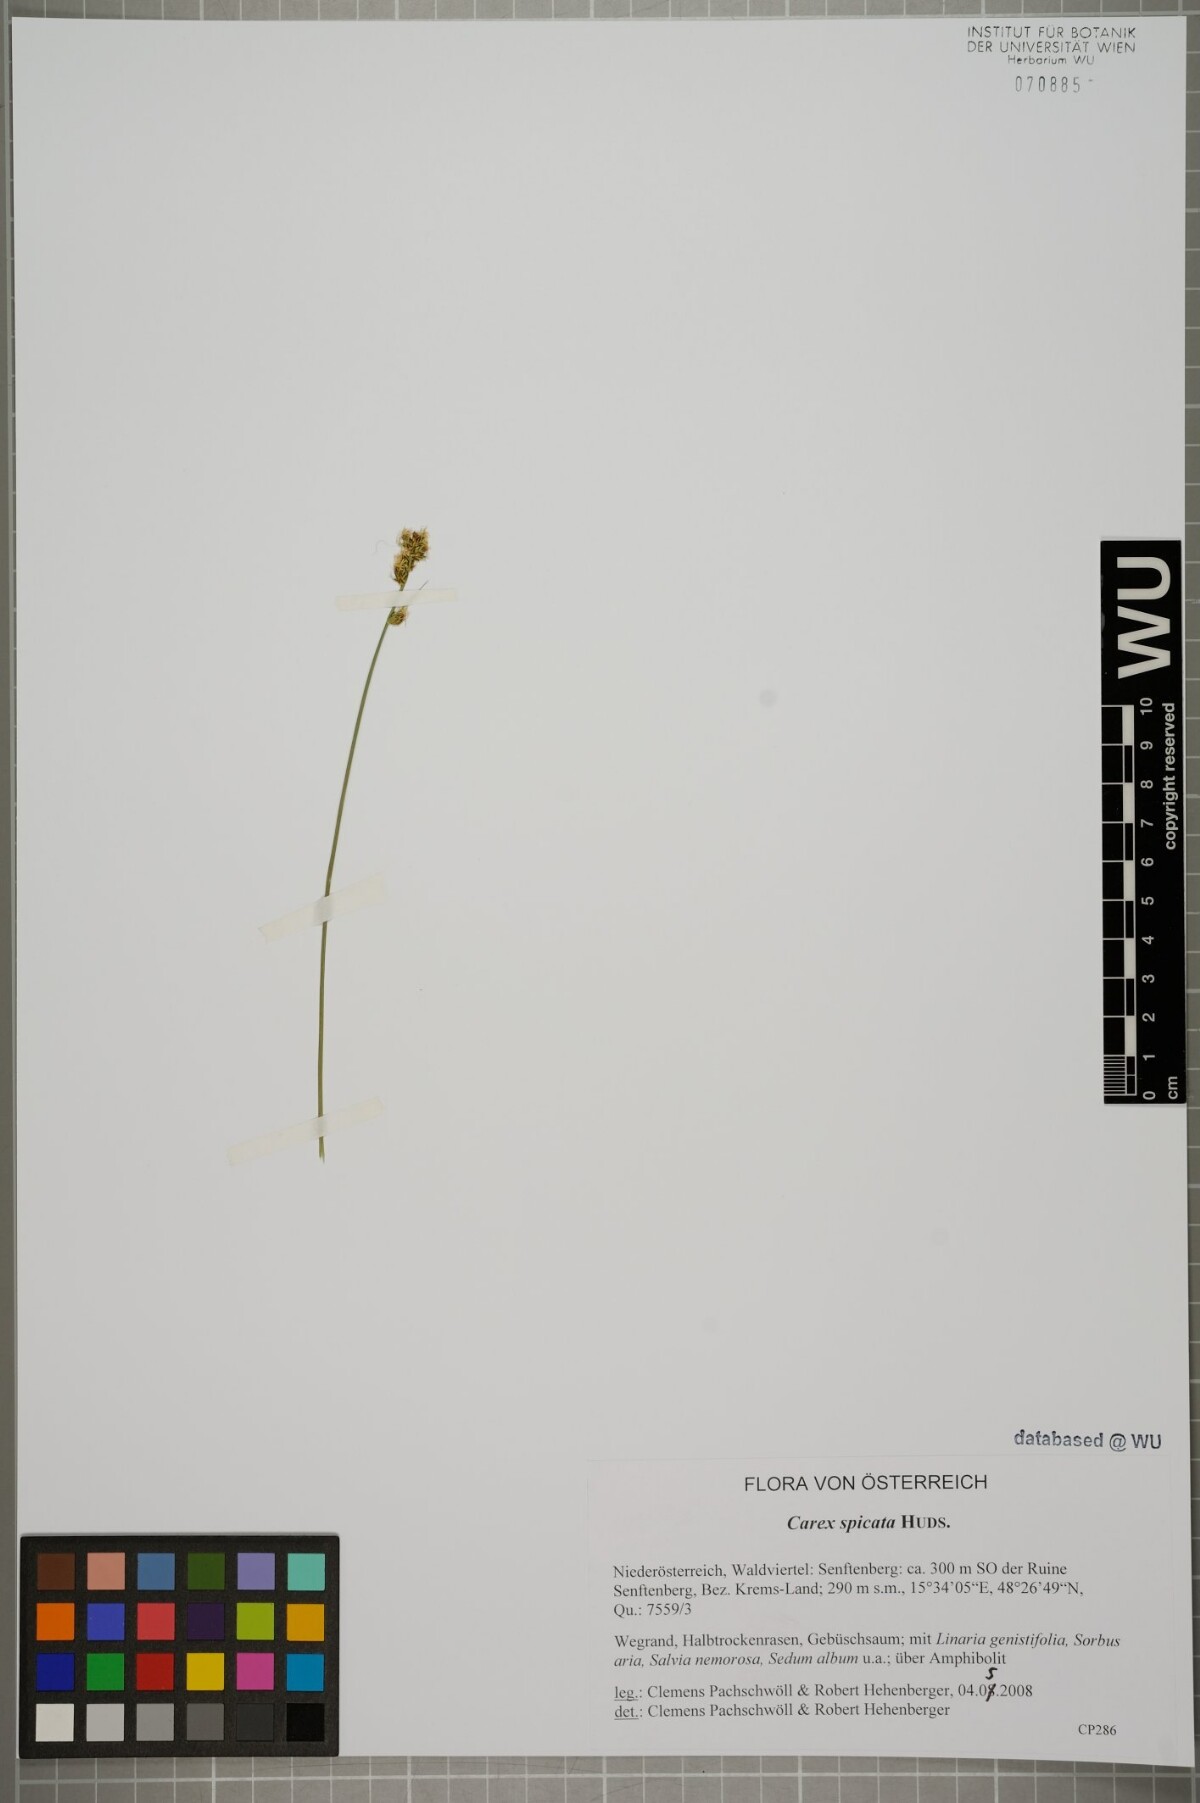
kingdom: Plantae
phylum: Tracheophyta
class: Liliopsida
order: Poales
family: Cyperaceae
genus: Carex
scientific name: Carex spicata
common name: Spiked sedge
